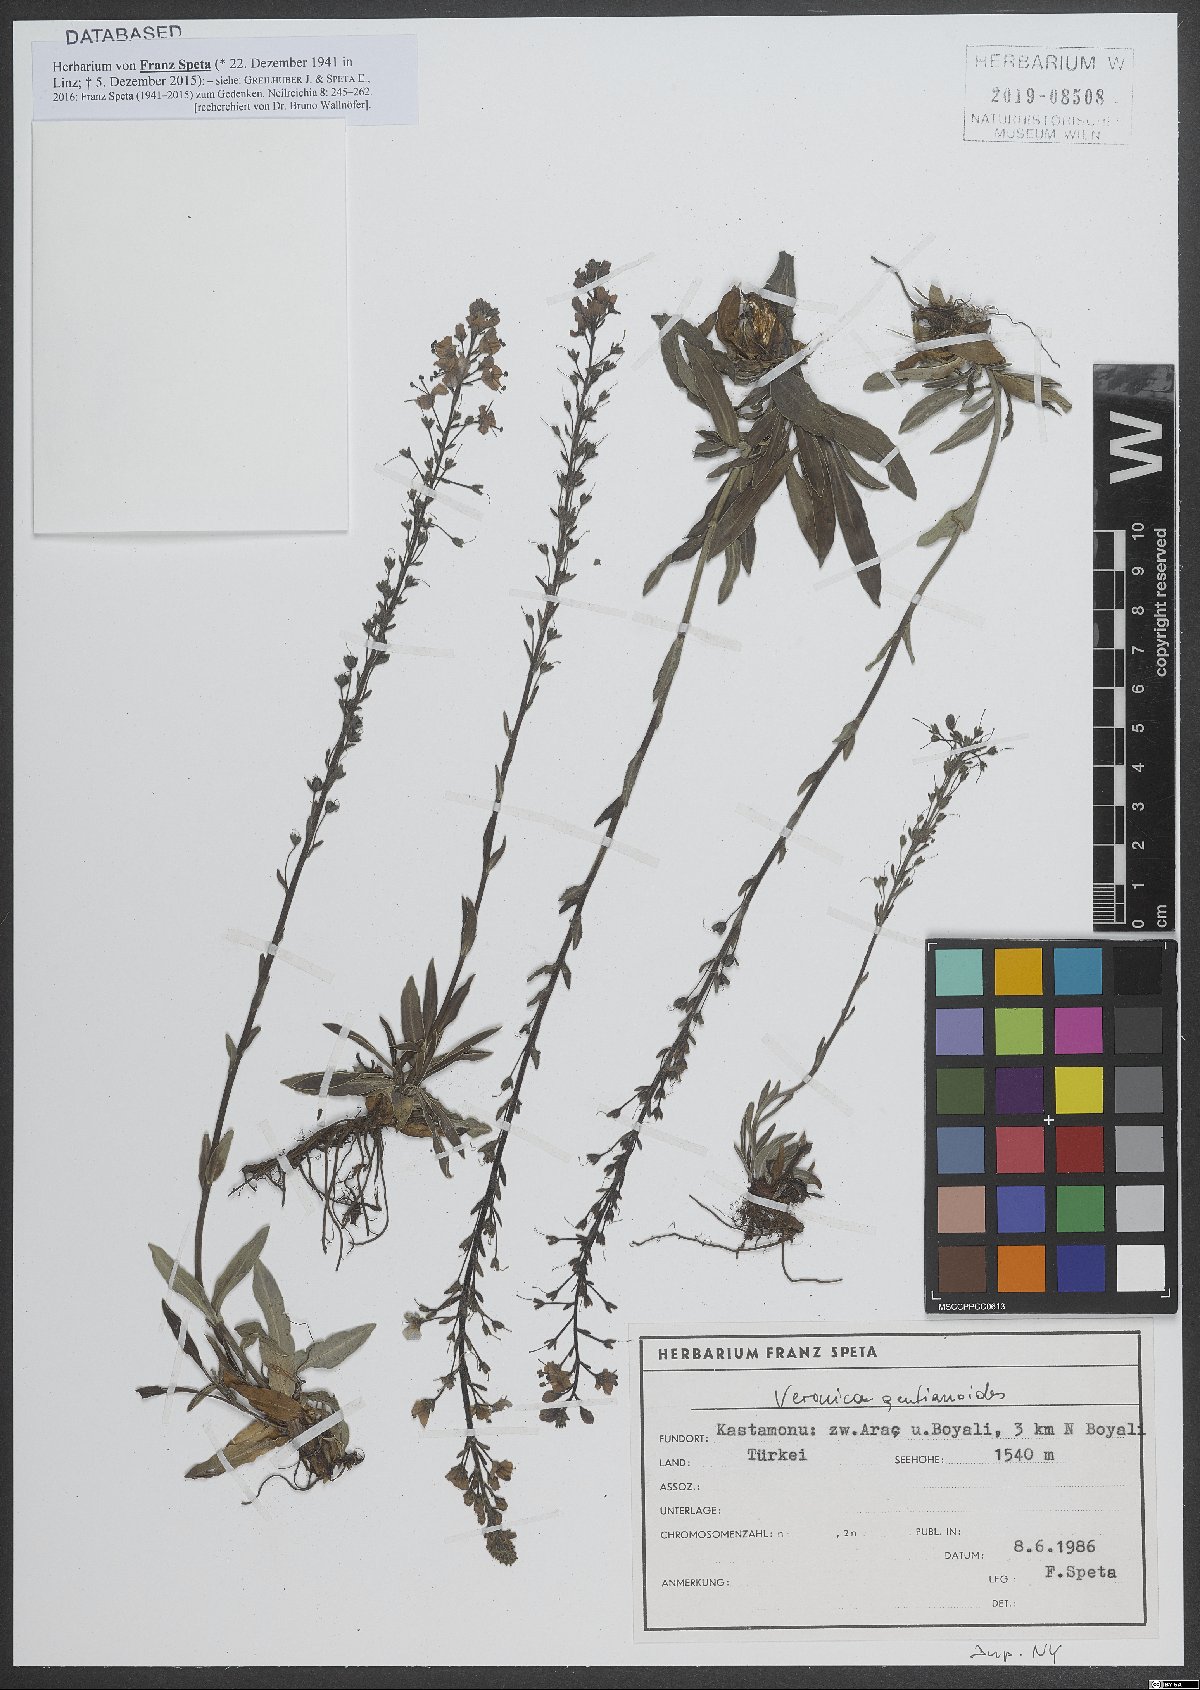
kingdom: Plantae
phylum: Tracheophyta
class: Magnoliopsida
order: Lamiales
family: Plantaginaceae
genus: Veronica
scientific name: Veronica gentianoides
